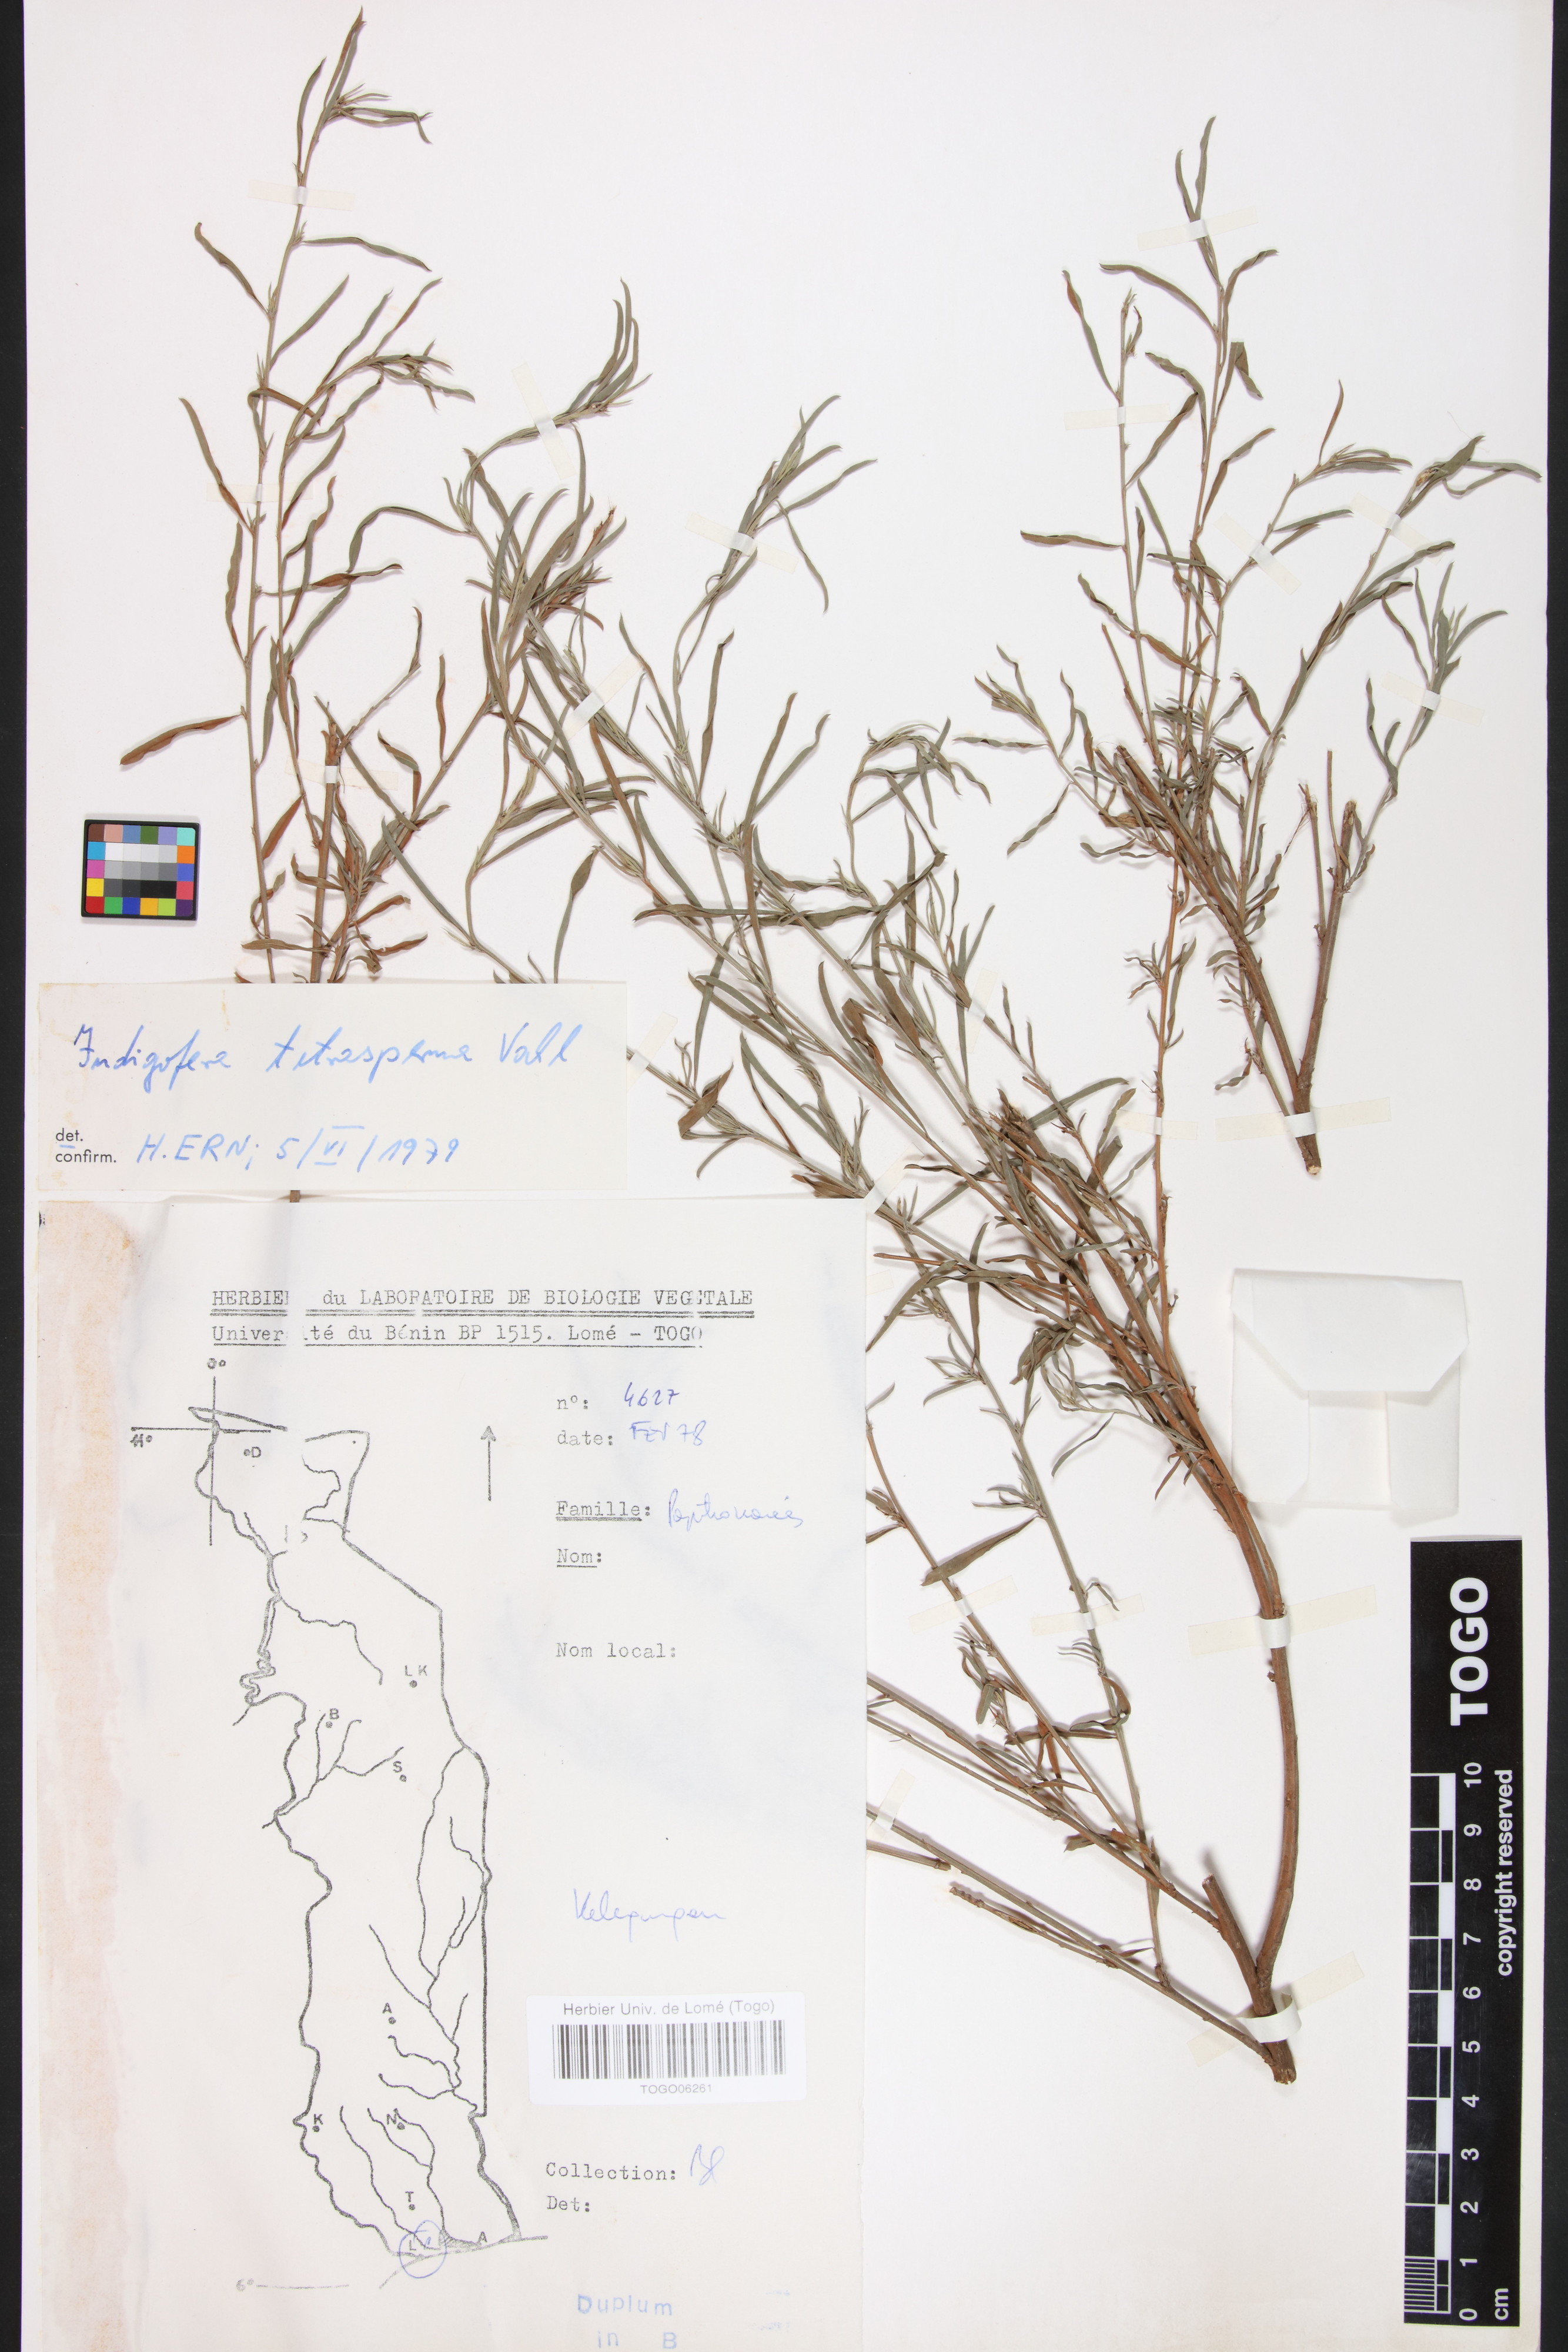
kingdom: Plantae
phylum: Tracheophyta
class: Magnoliopsida
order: Fabales
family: Fabaceae
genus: Indigofera
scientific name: Indigofera tetrasperma
